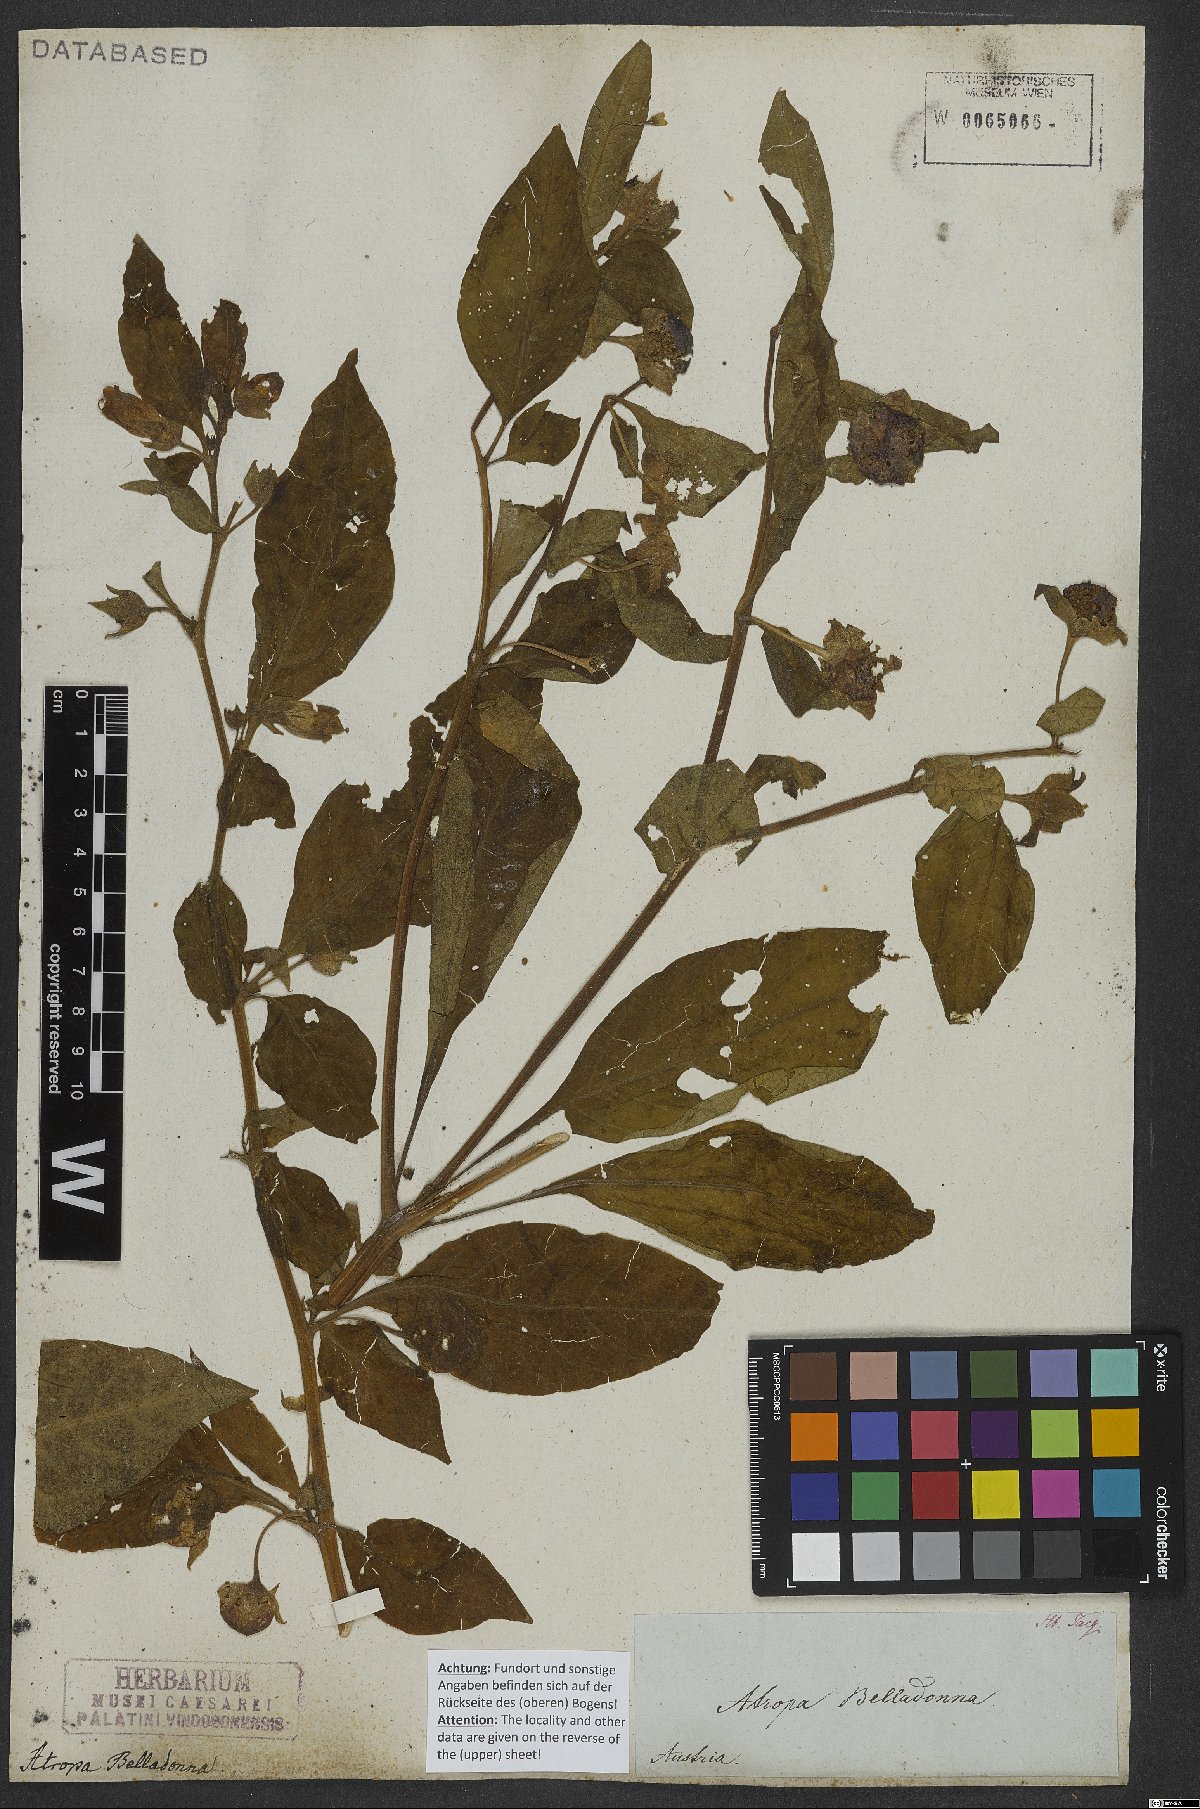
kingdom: Plantae
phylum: Tracheophyta
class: Magnoliopsida
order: Solanales
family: Solanaceae
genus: Atropa
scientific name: Atropa belladonna
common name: Deadly nightshade
